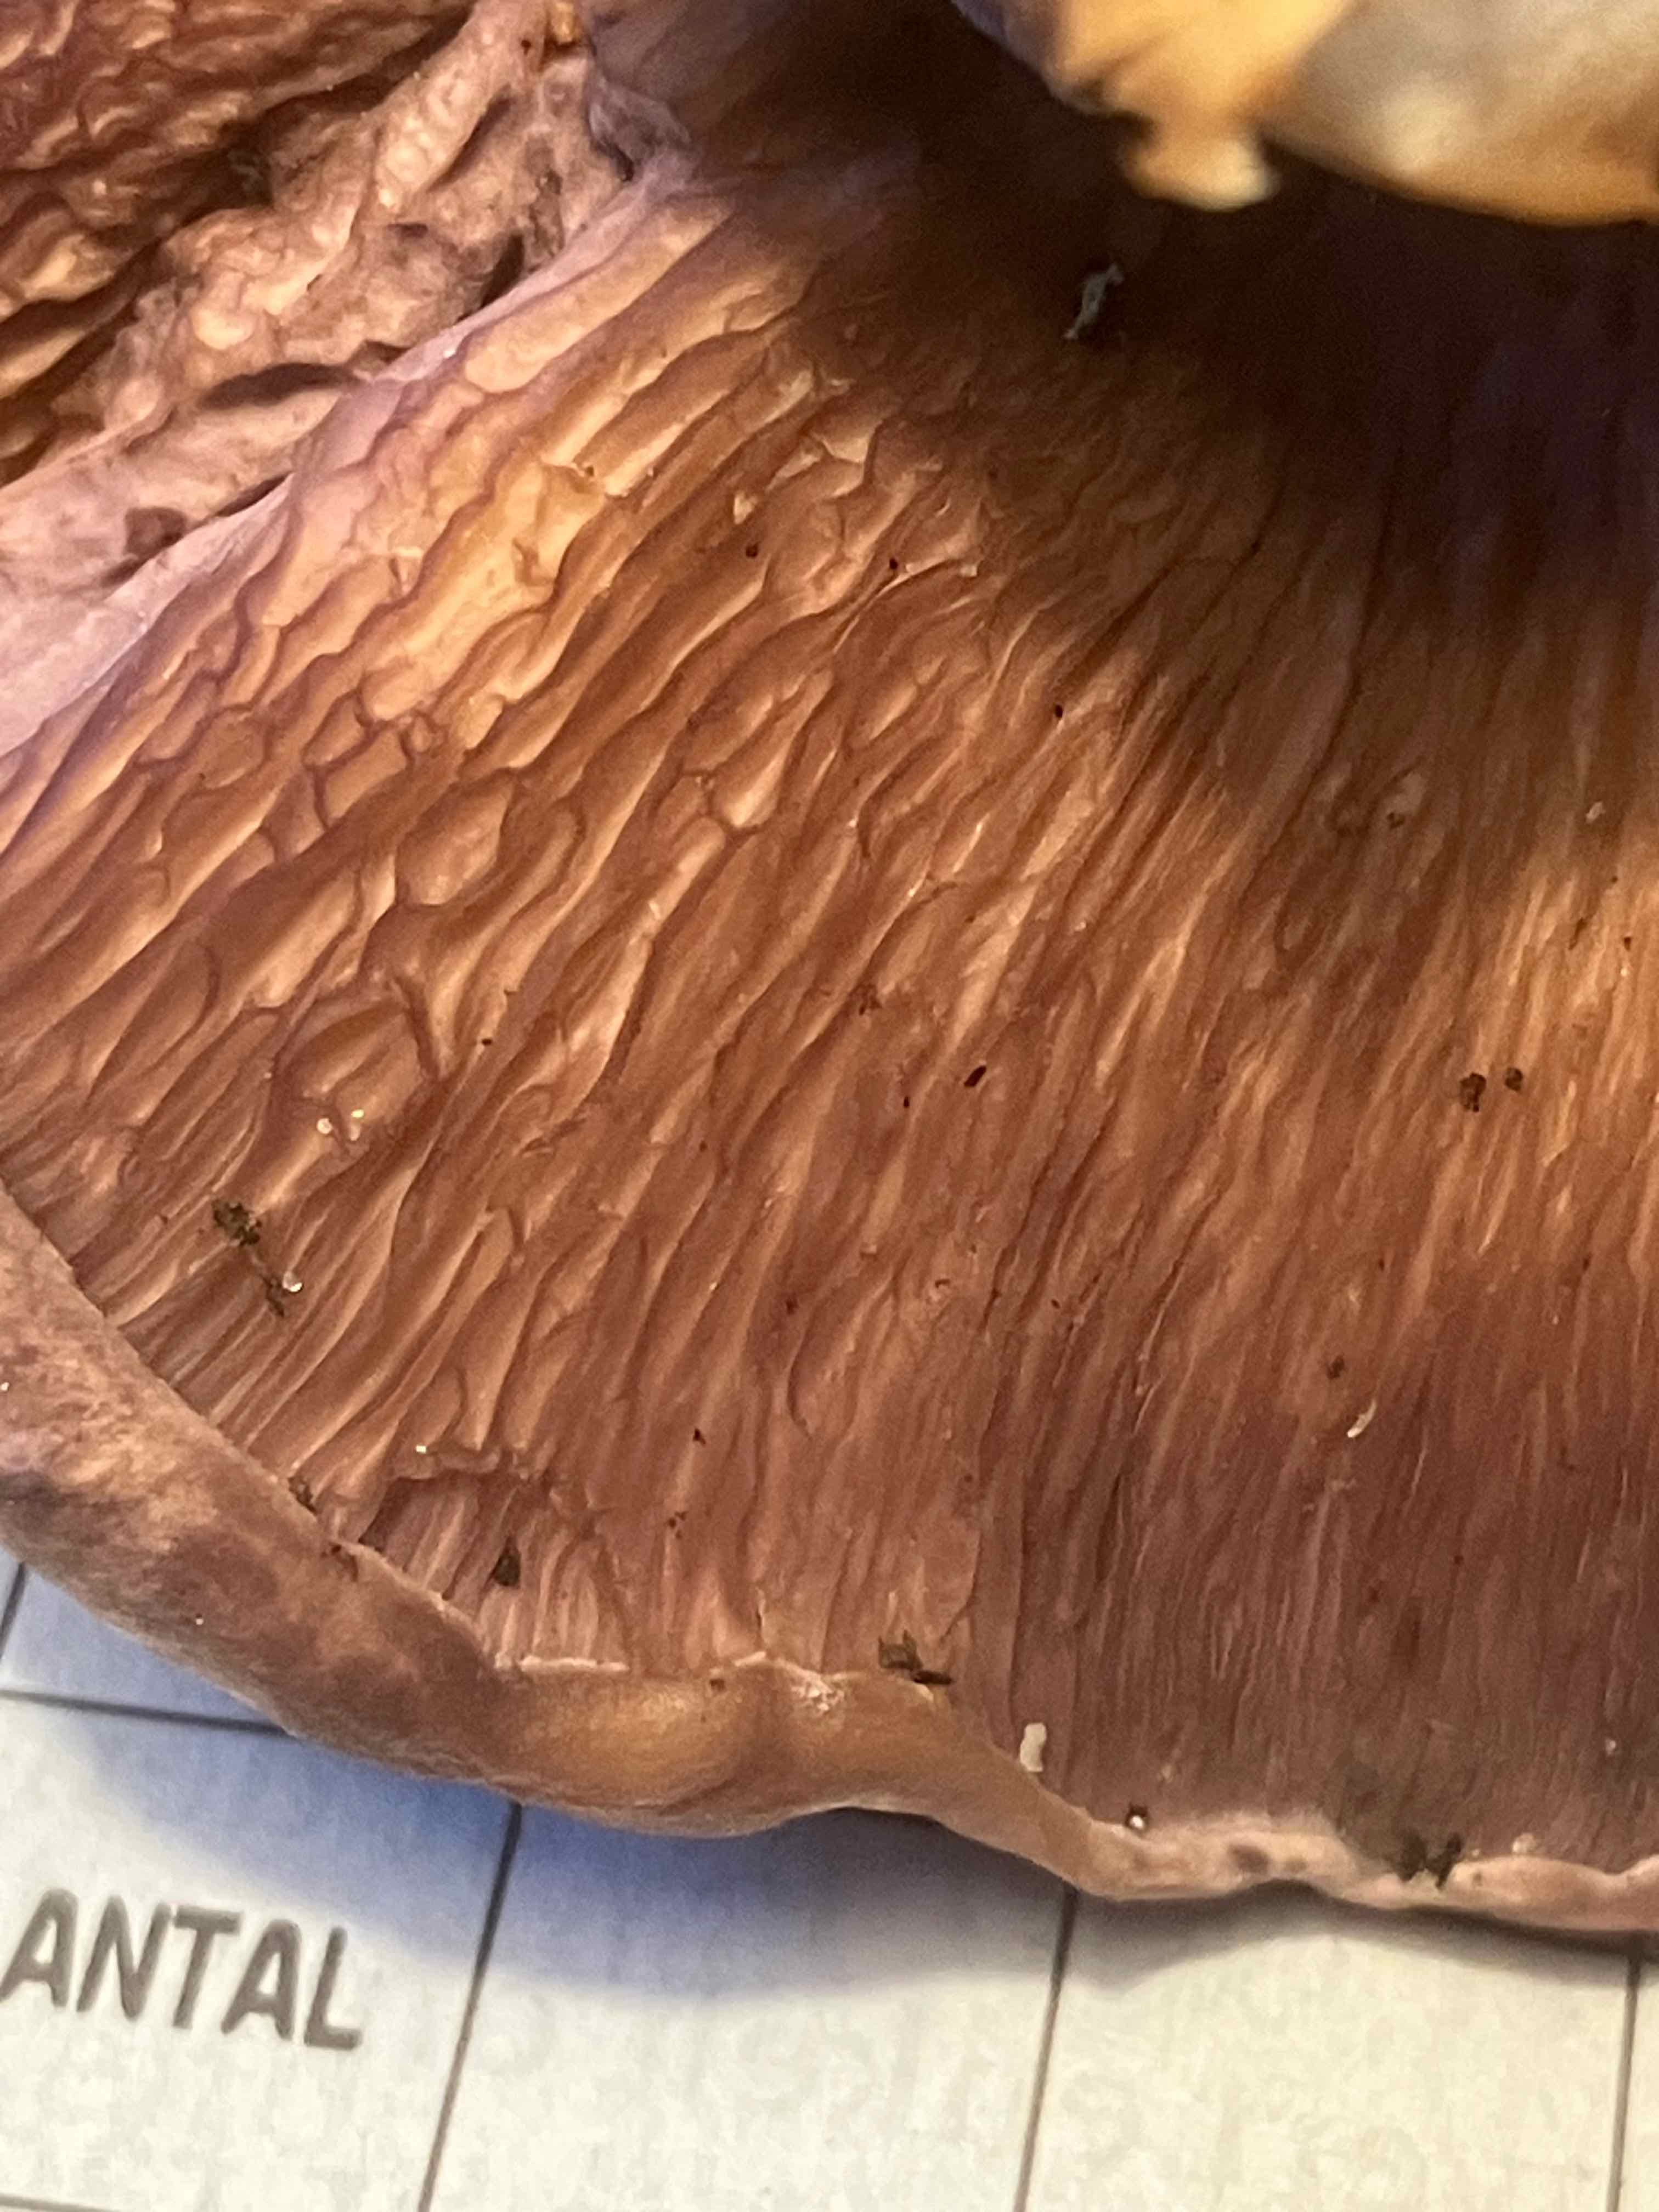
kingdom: Fungi
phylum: Basidiomycota
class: Agaricomycetes
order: Polyporales
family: Panaceae
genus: Panus
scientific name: Panus conchatus
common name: filtstokket læderhat
